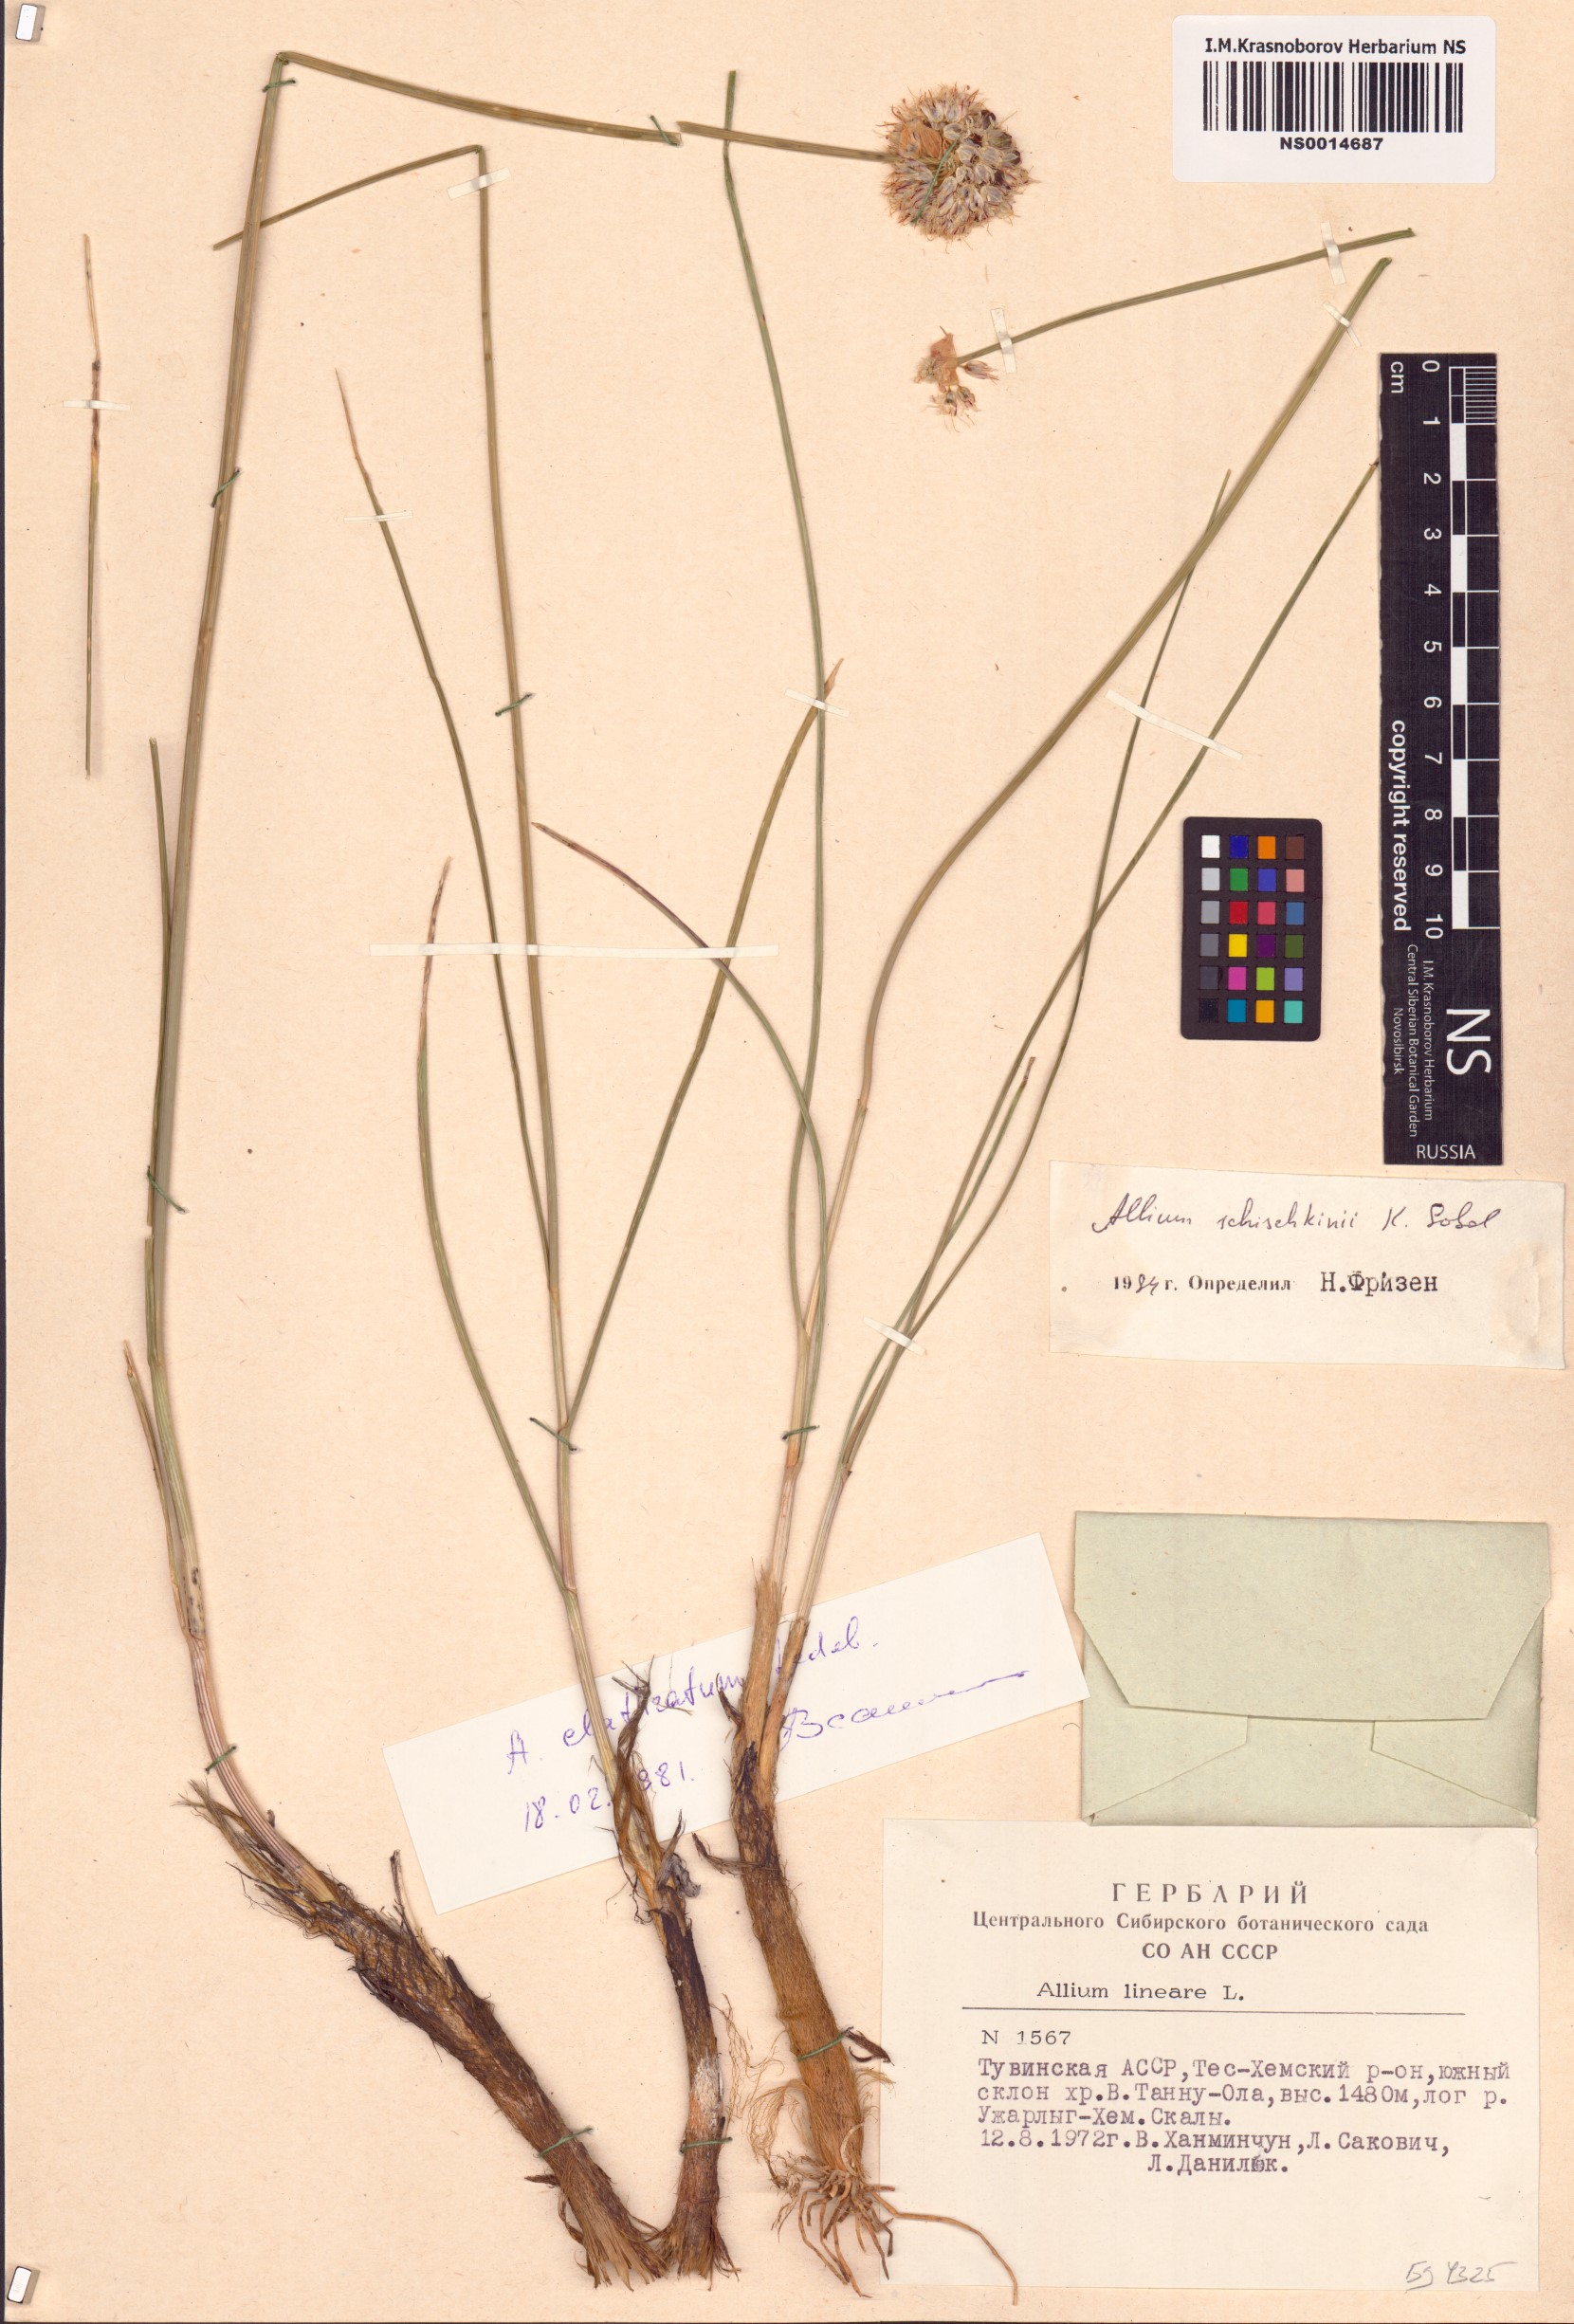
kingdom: Plantae
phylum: Tracheophyta
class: Liliopsida
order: Asparagales
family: Amaryllidaceae
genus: Allium
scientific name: Allium schischkinii
